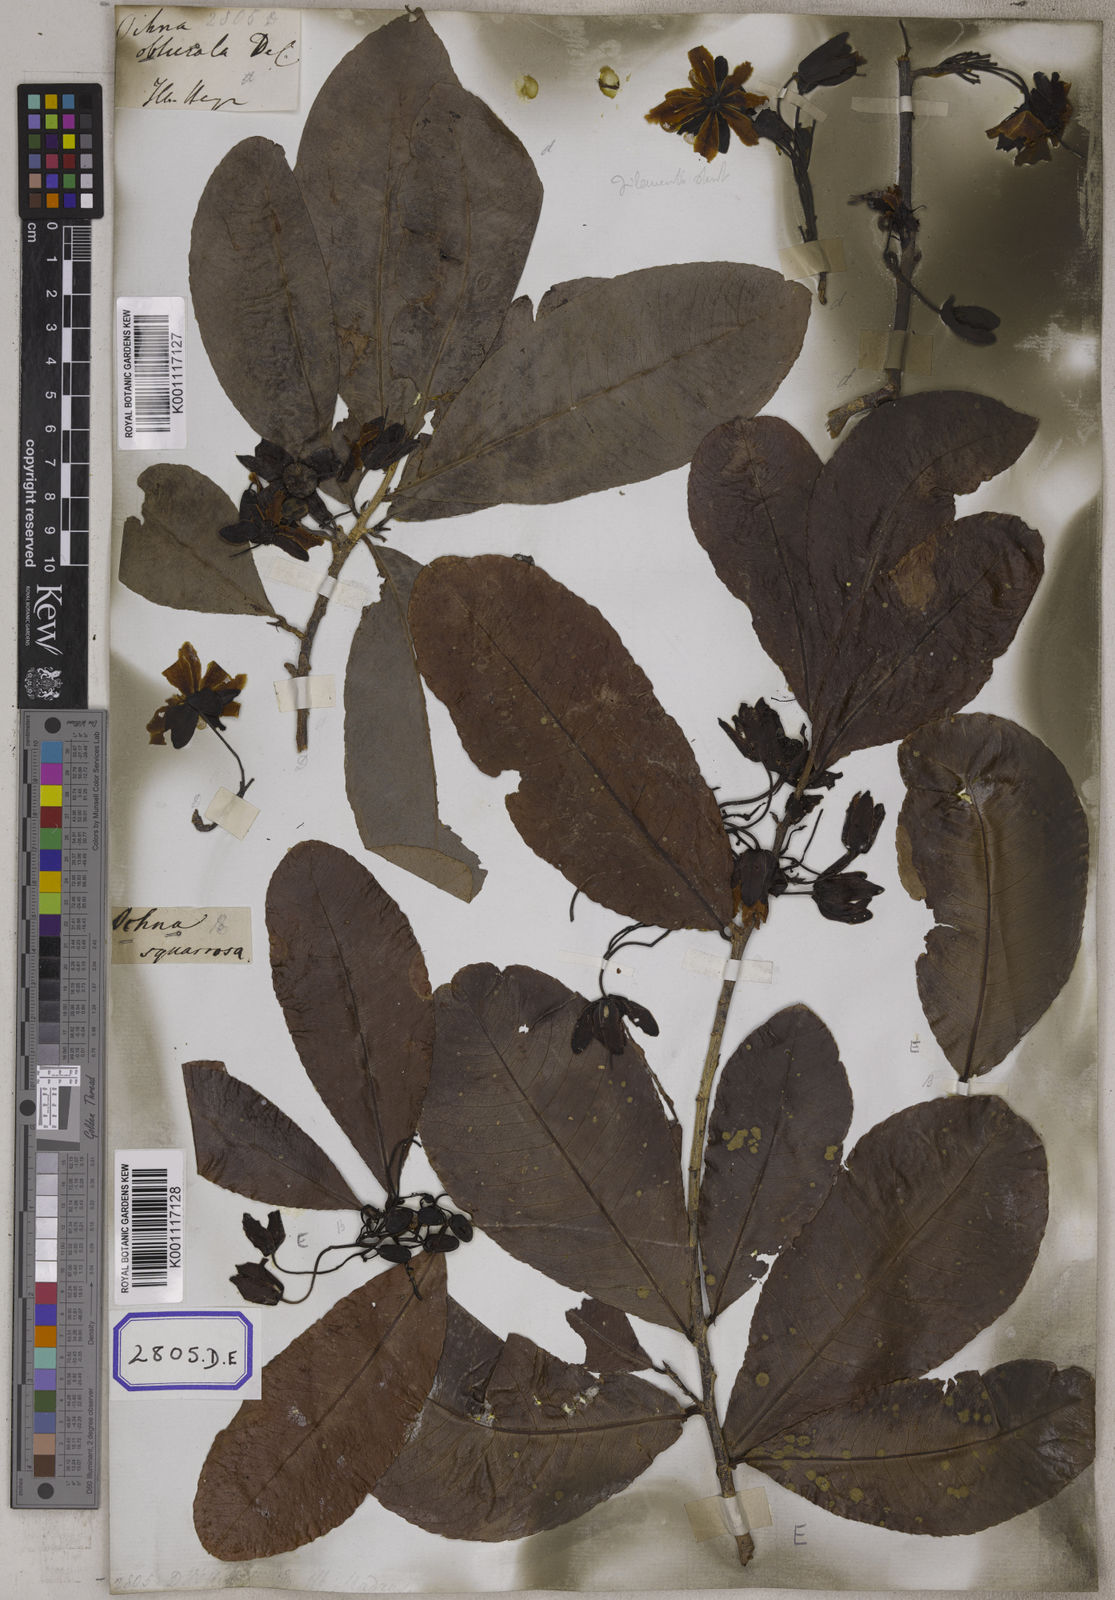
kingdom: Plantae
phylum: Tracheophyta
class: Magnoliopsida
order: Malpighiales
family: Ochnaceae
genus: Ochna
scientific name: Ochna obtusata
